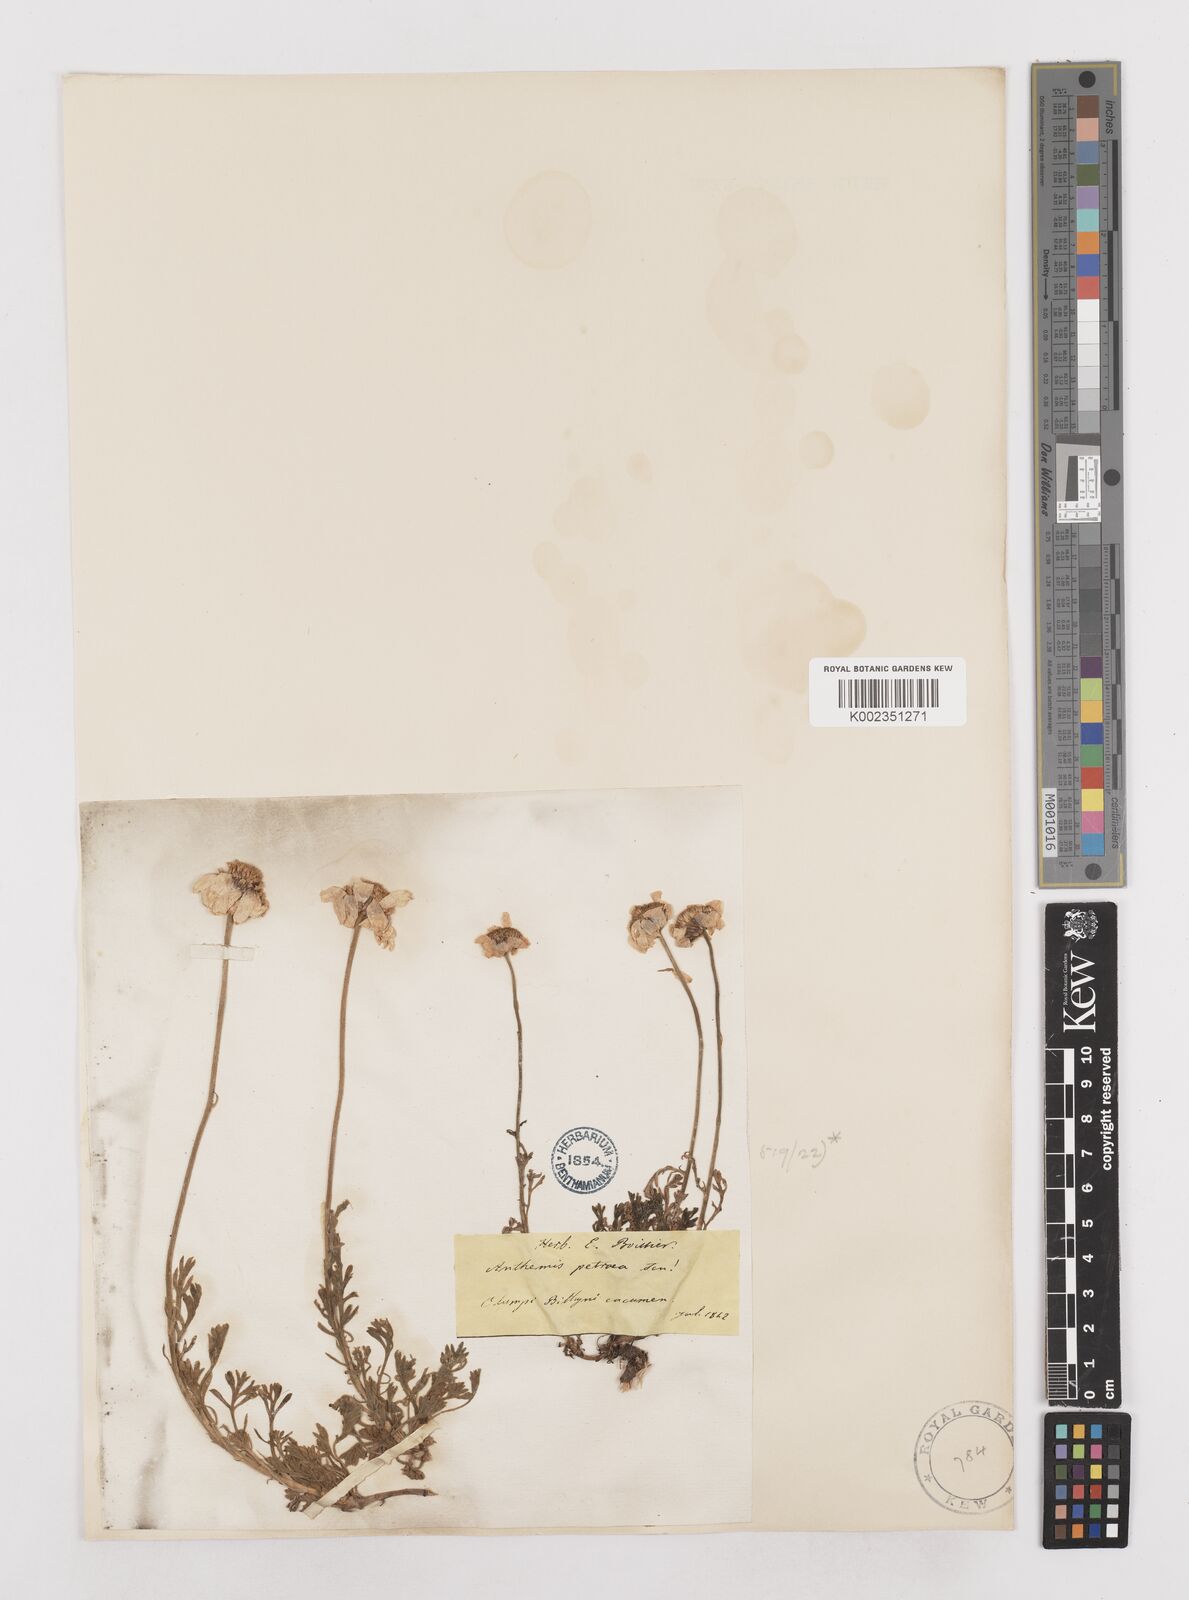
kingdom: Plantae
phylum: Tracheophyta
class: Magnoliopsida
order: Asterales
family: Asteraceae
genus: Anthemis
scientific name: Anthemis cretica
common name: Mountain dog-daisy
